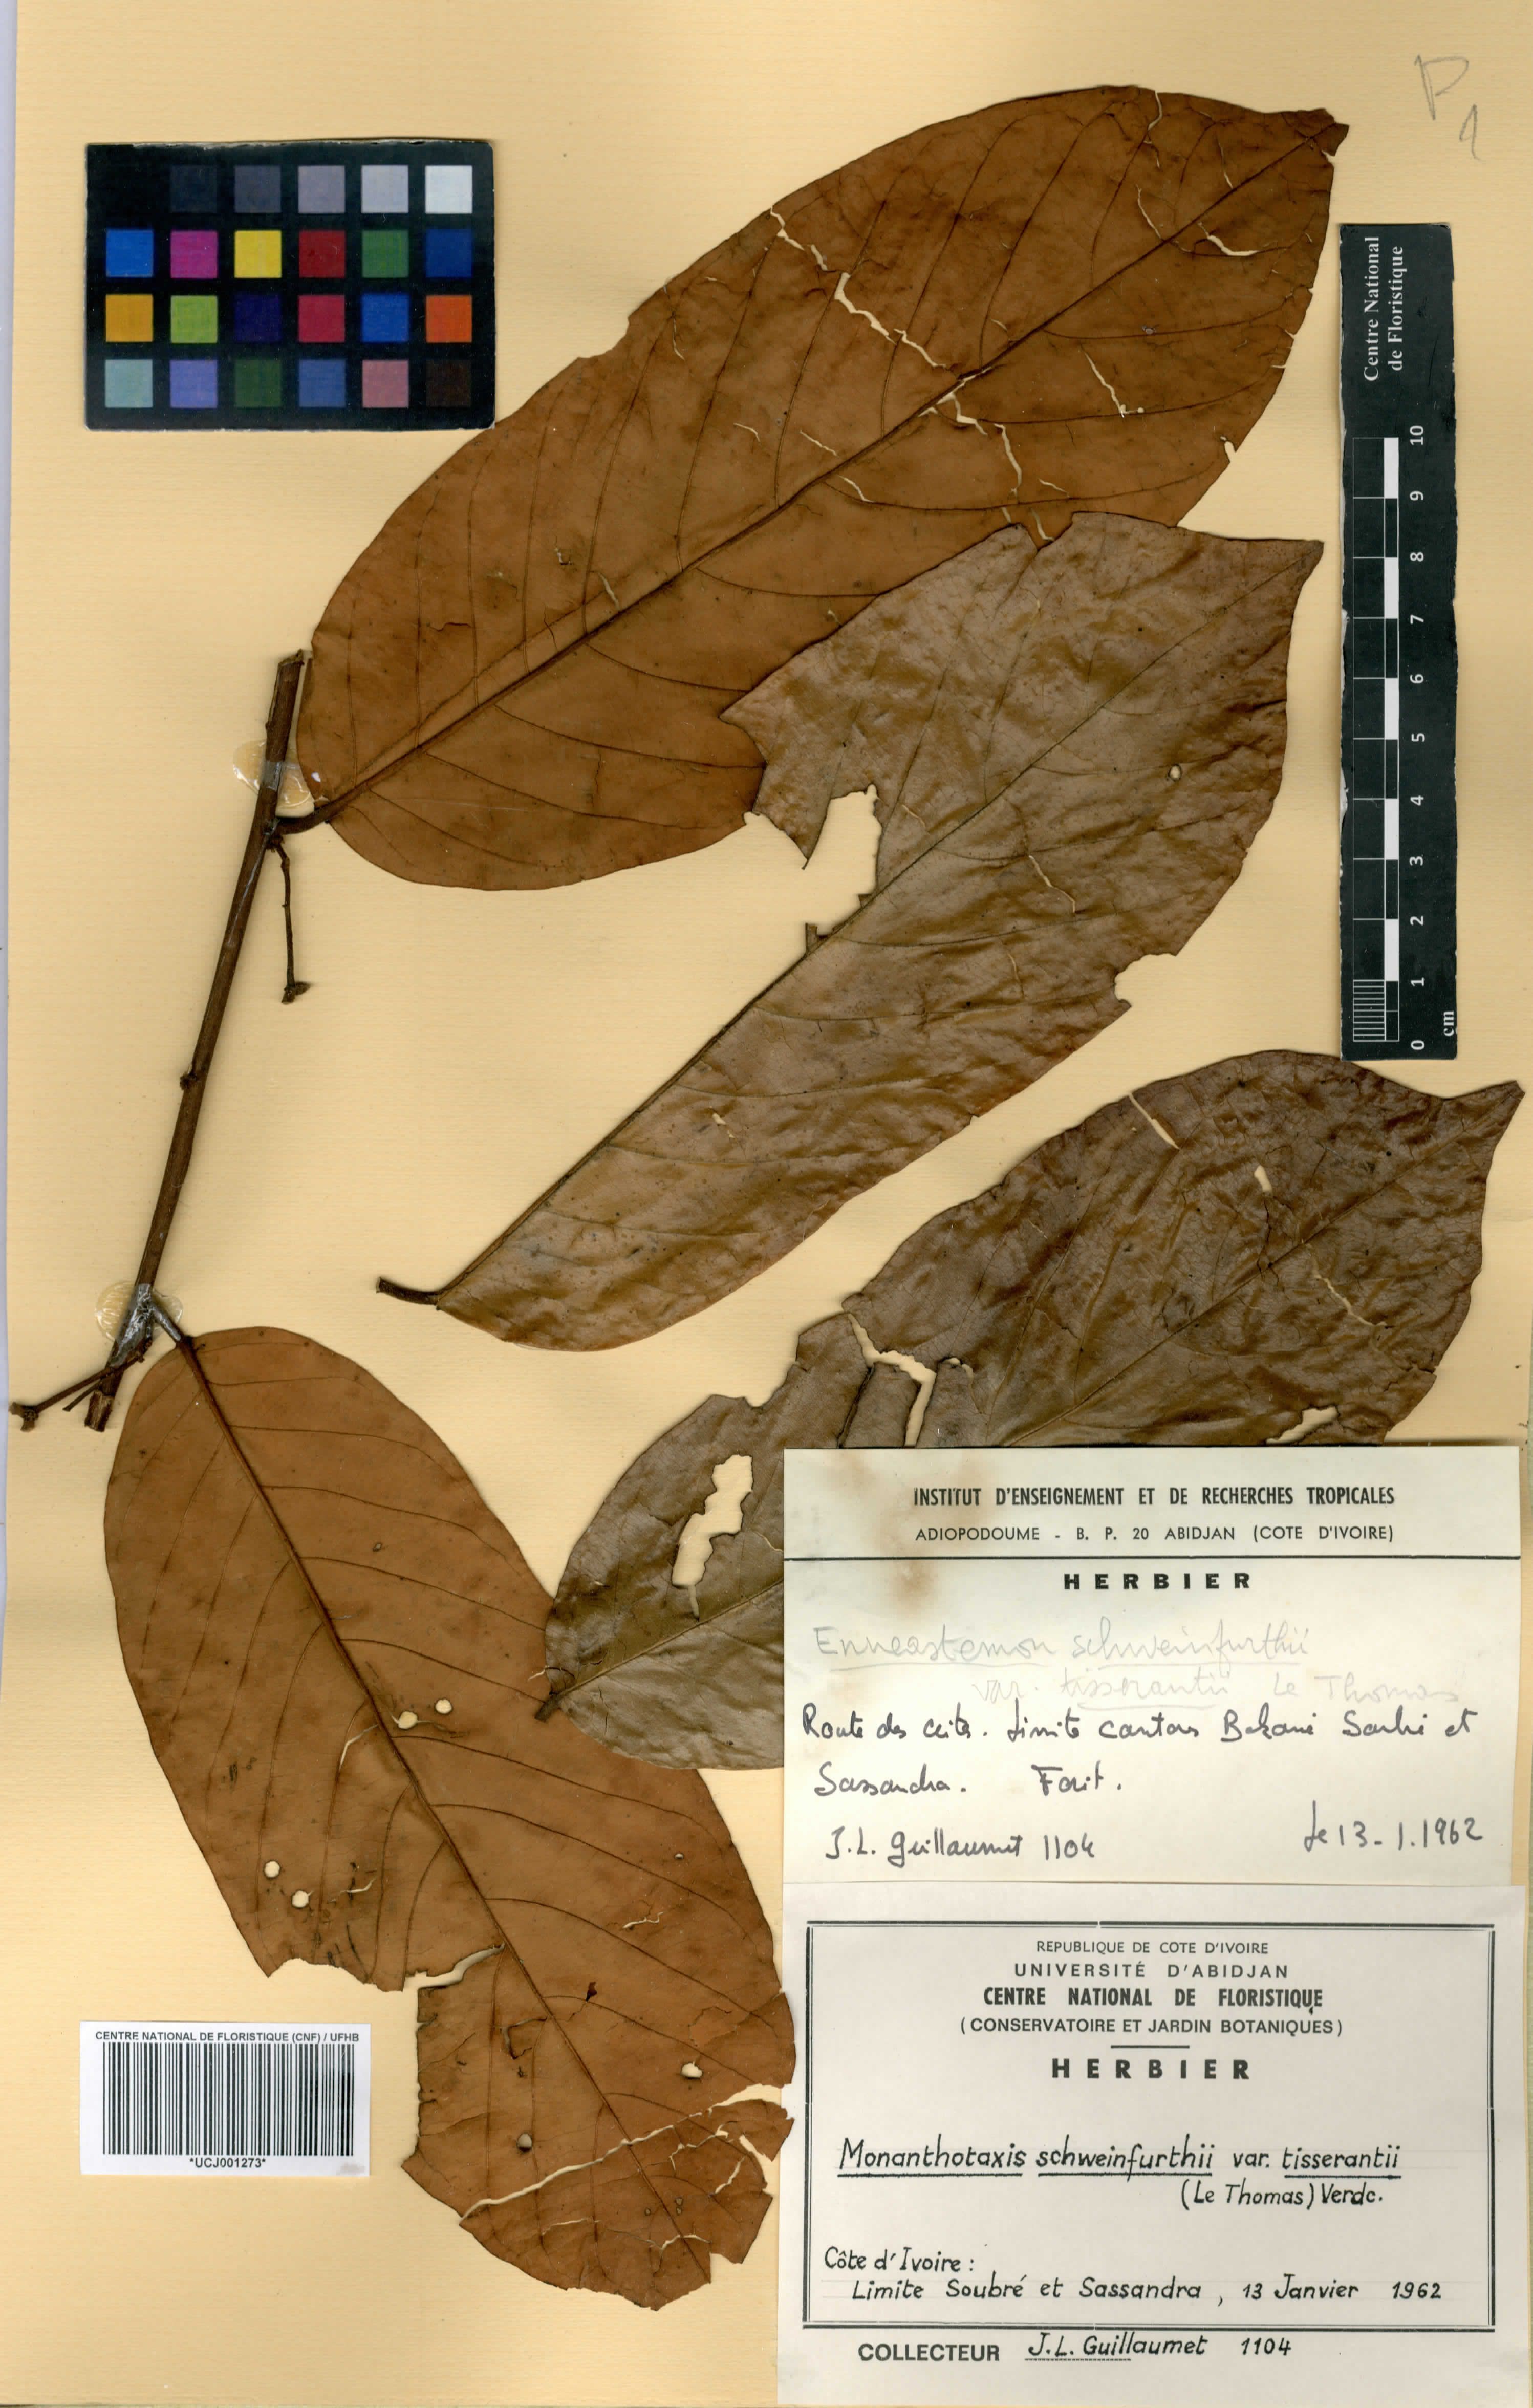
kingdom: Plantae
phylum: Tracheophyta
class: Magnoliopsida
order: Magnoliales
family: Annonaceae
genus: Monanthotaxis
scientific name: Monanthotaxis schweinfurthii
